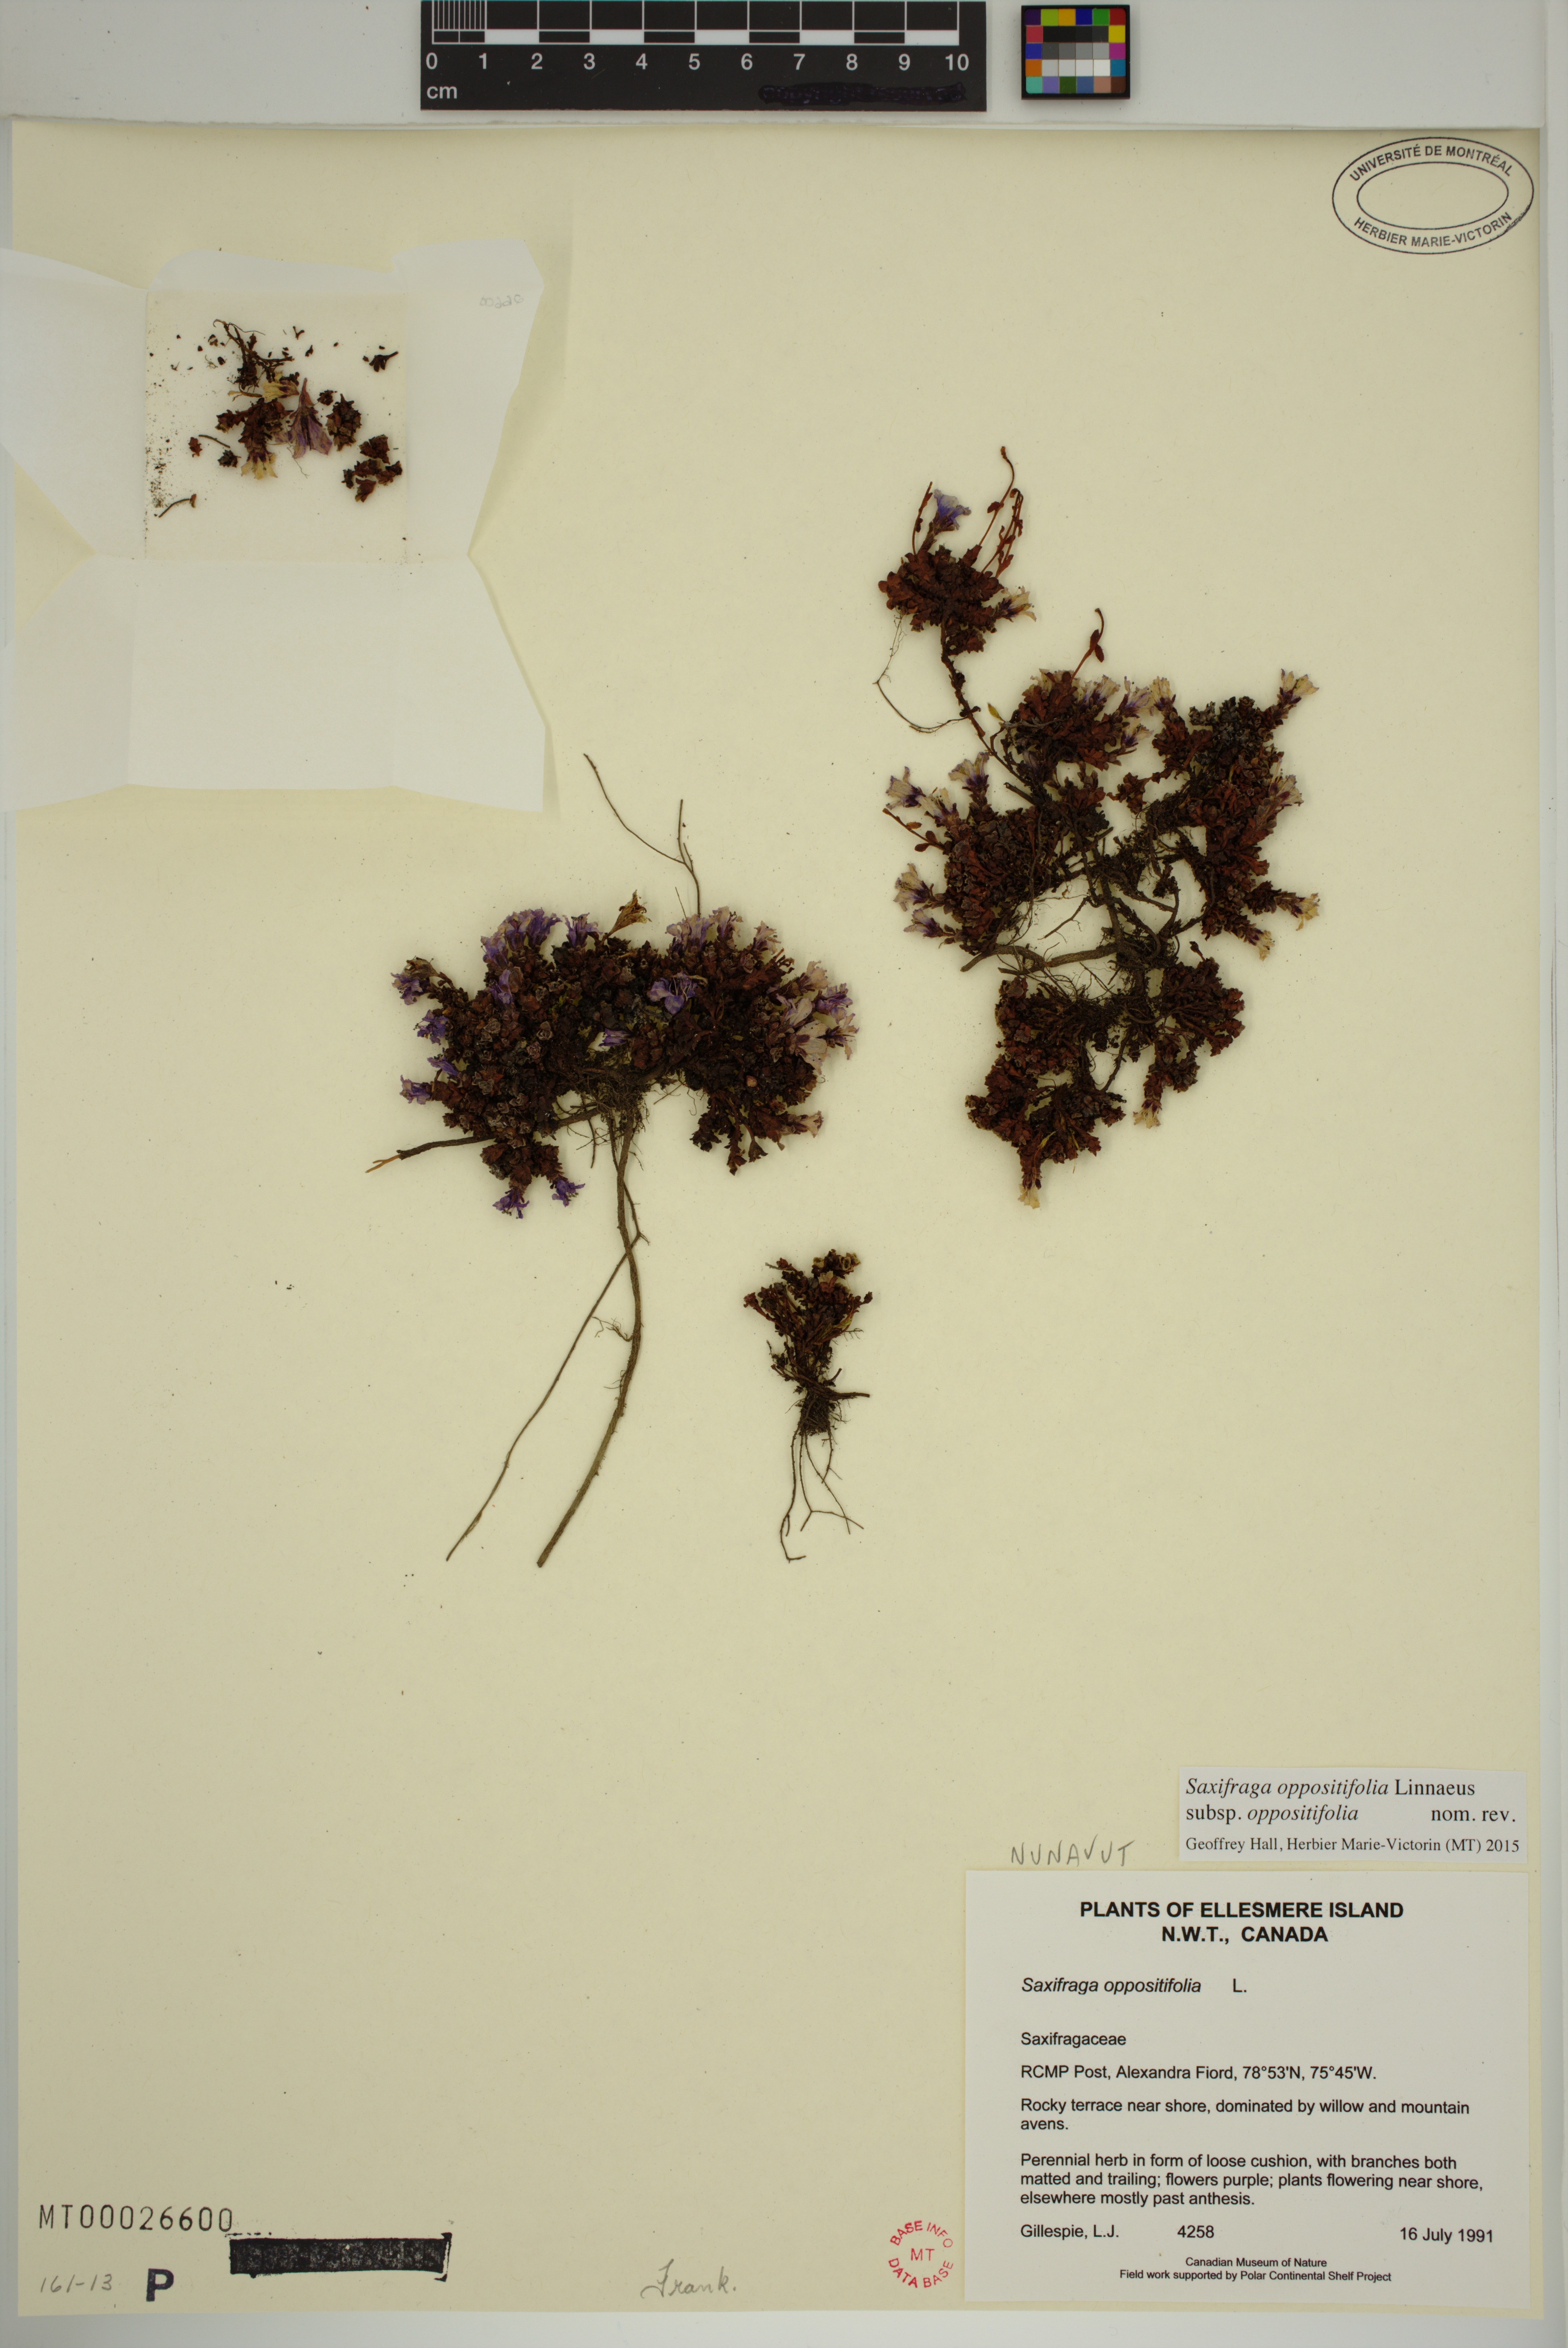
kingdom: Plantae
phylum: Tracheophyta
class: Magnoliopsida
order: Saxifragales
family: Saxifragaceae
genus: Saxifraga
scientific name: Saxifraga oppositifolia
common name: Purple saxifrage
